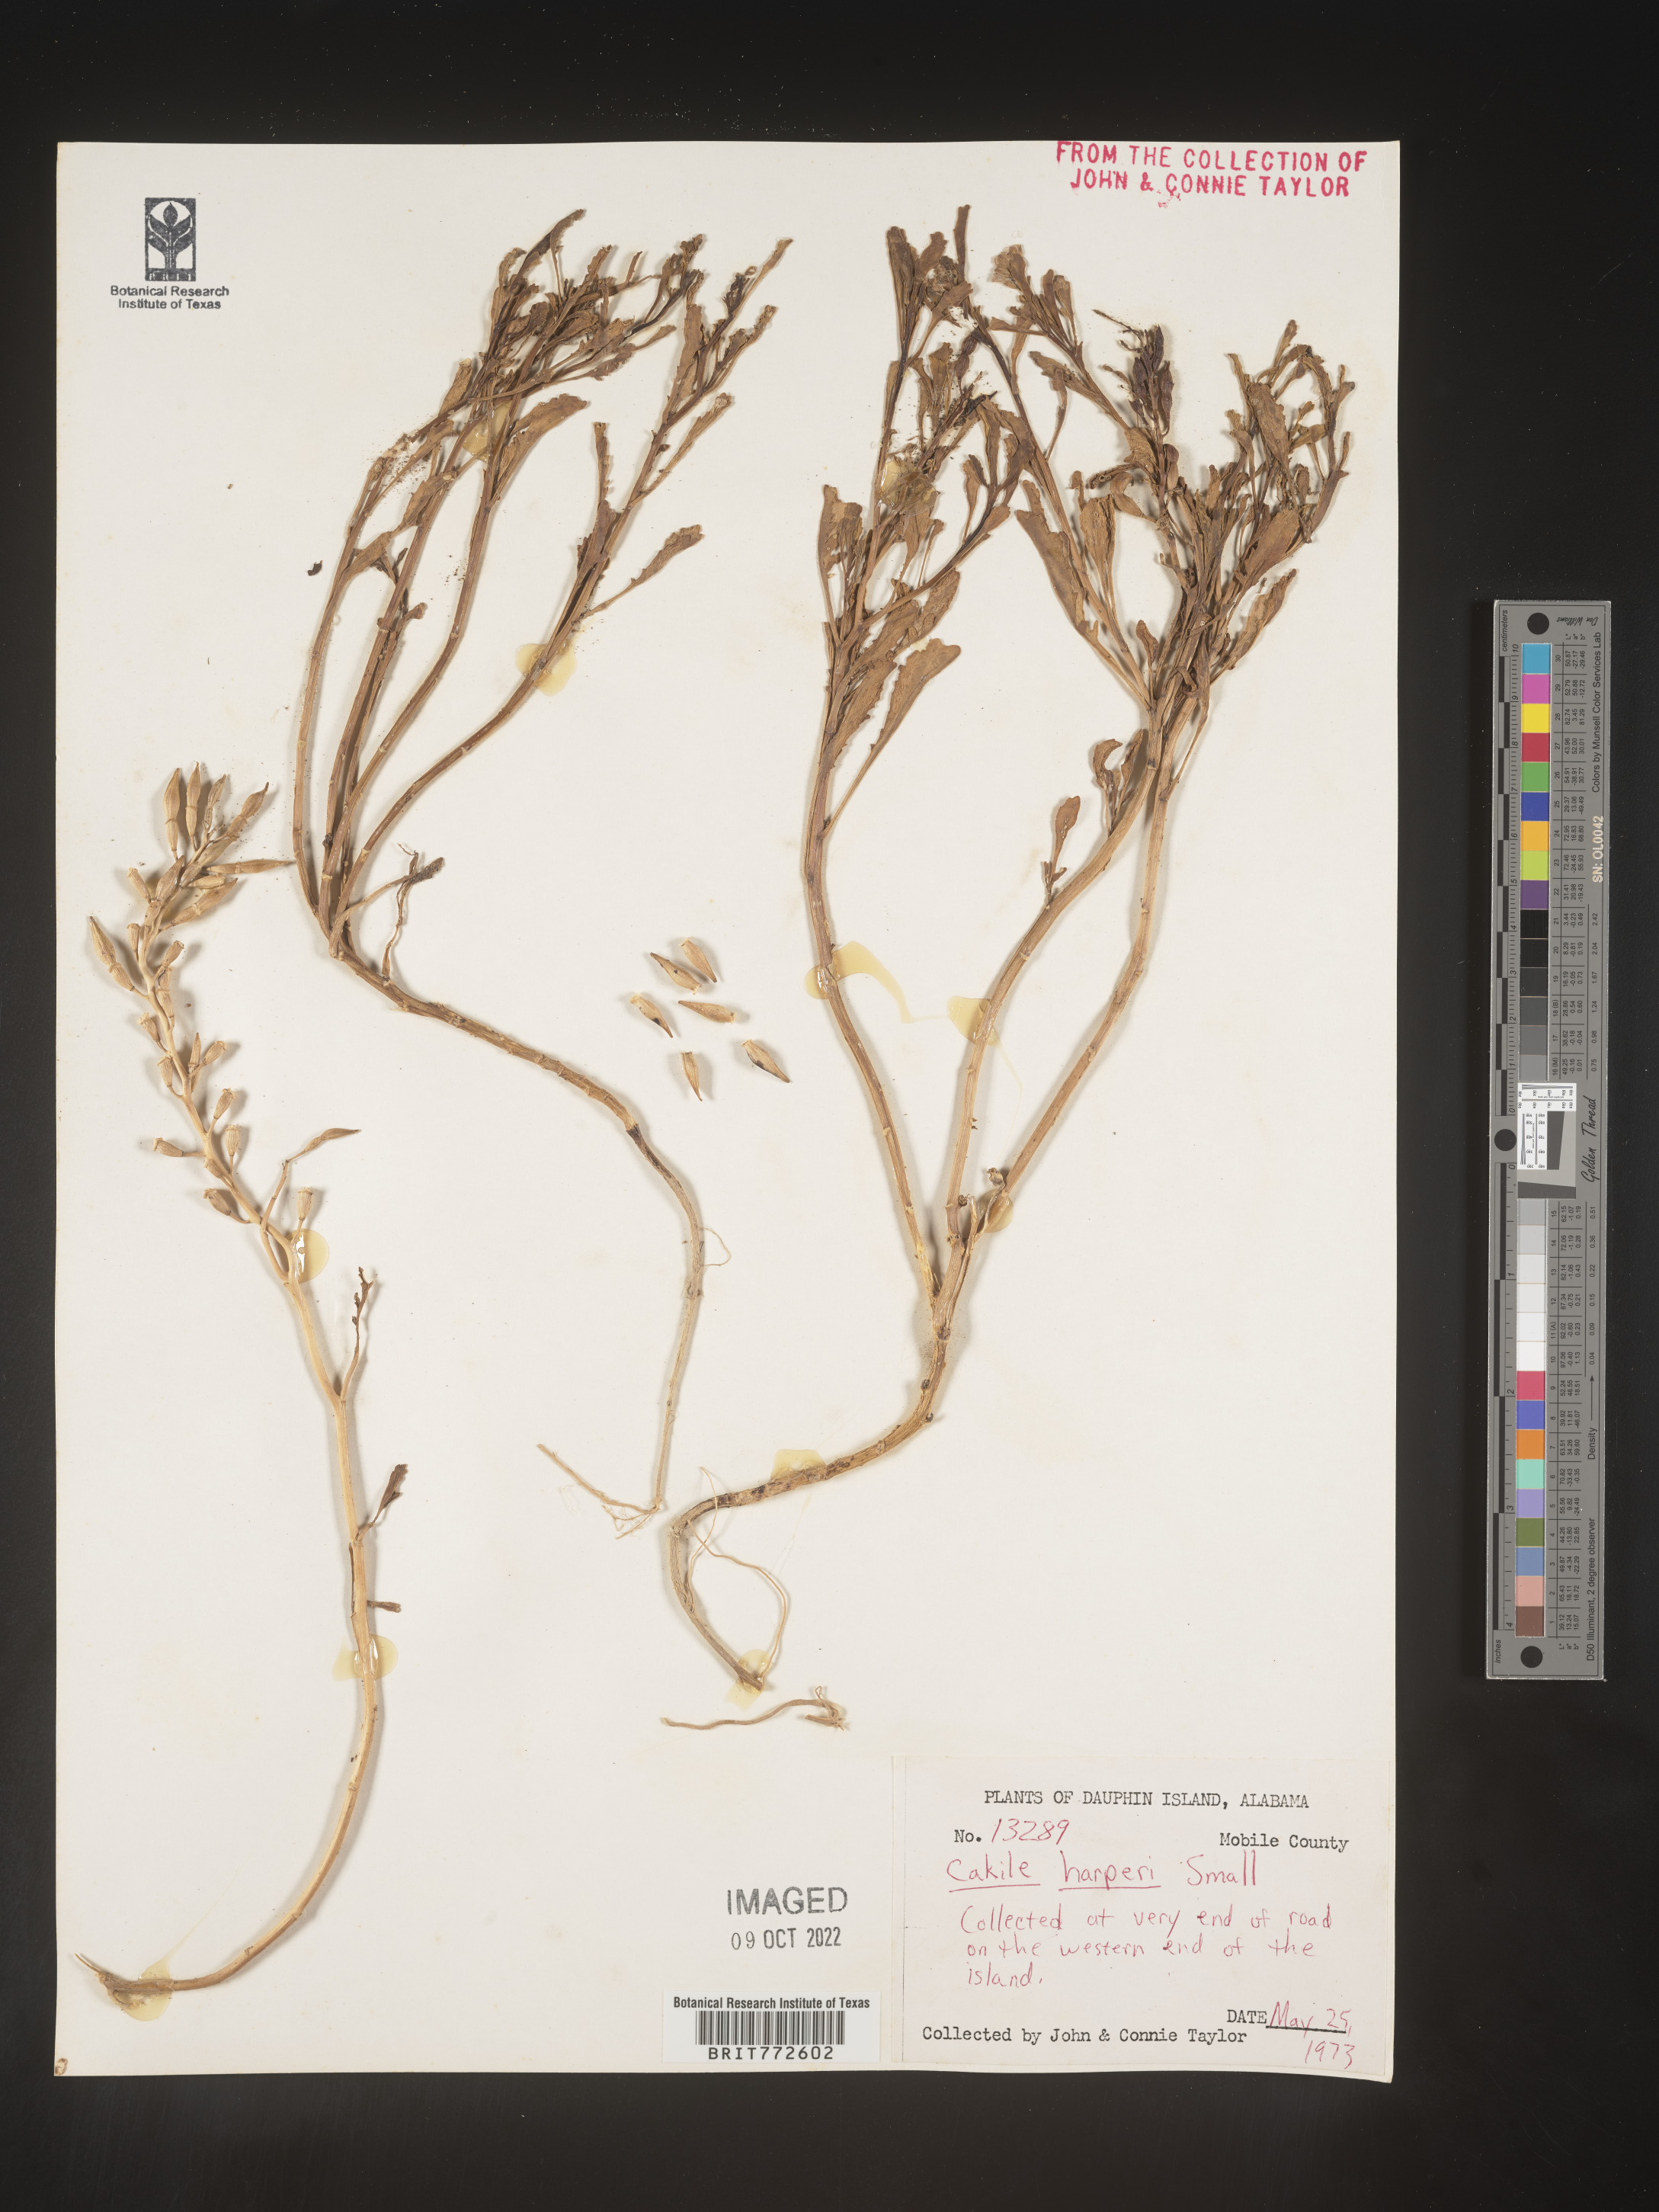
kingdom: Plantae
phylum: Tracheophyta
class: Magnoliopsida
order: Brassicales
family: Brassicaceae
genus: Cakile
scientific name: Cakile edentula
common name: American sea rocket
